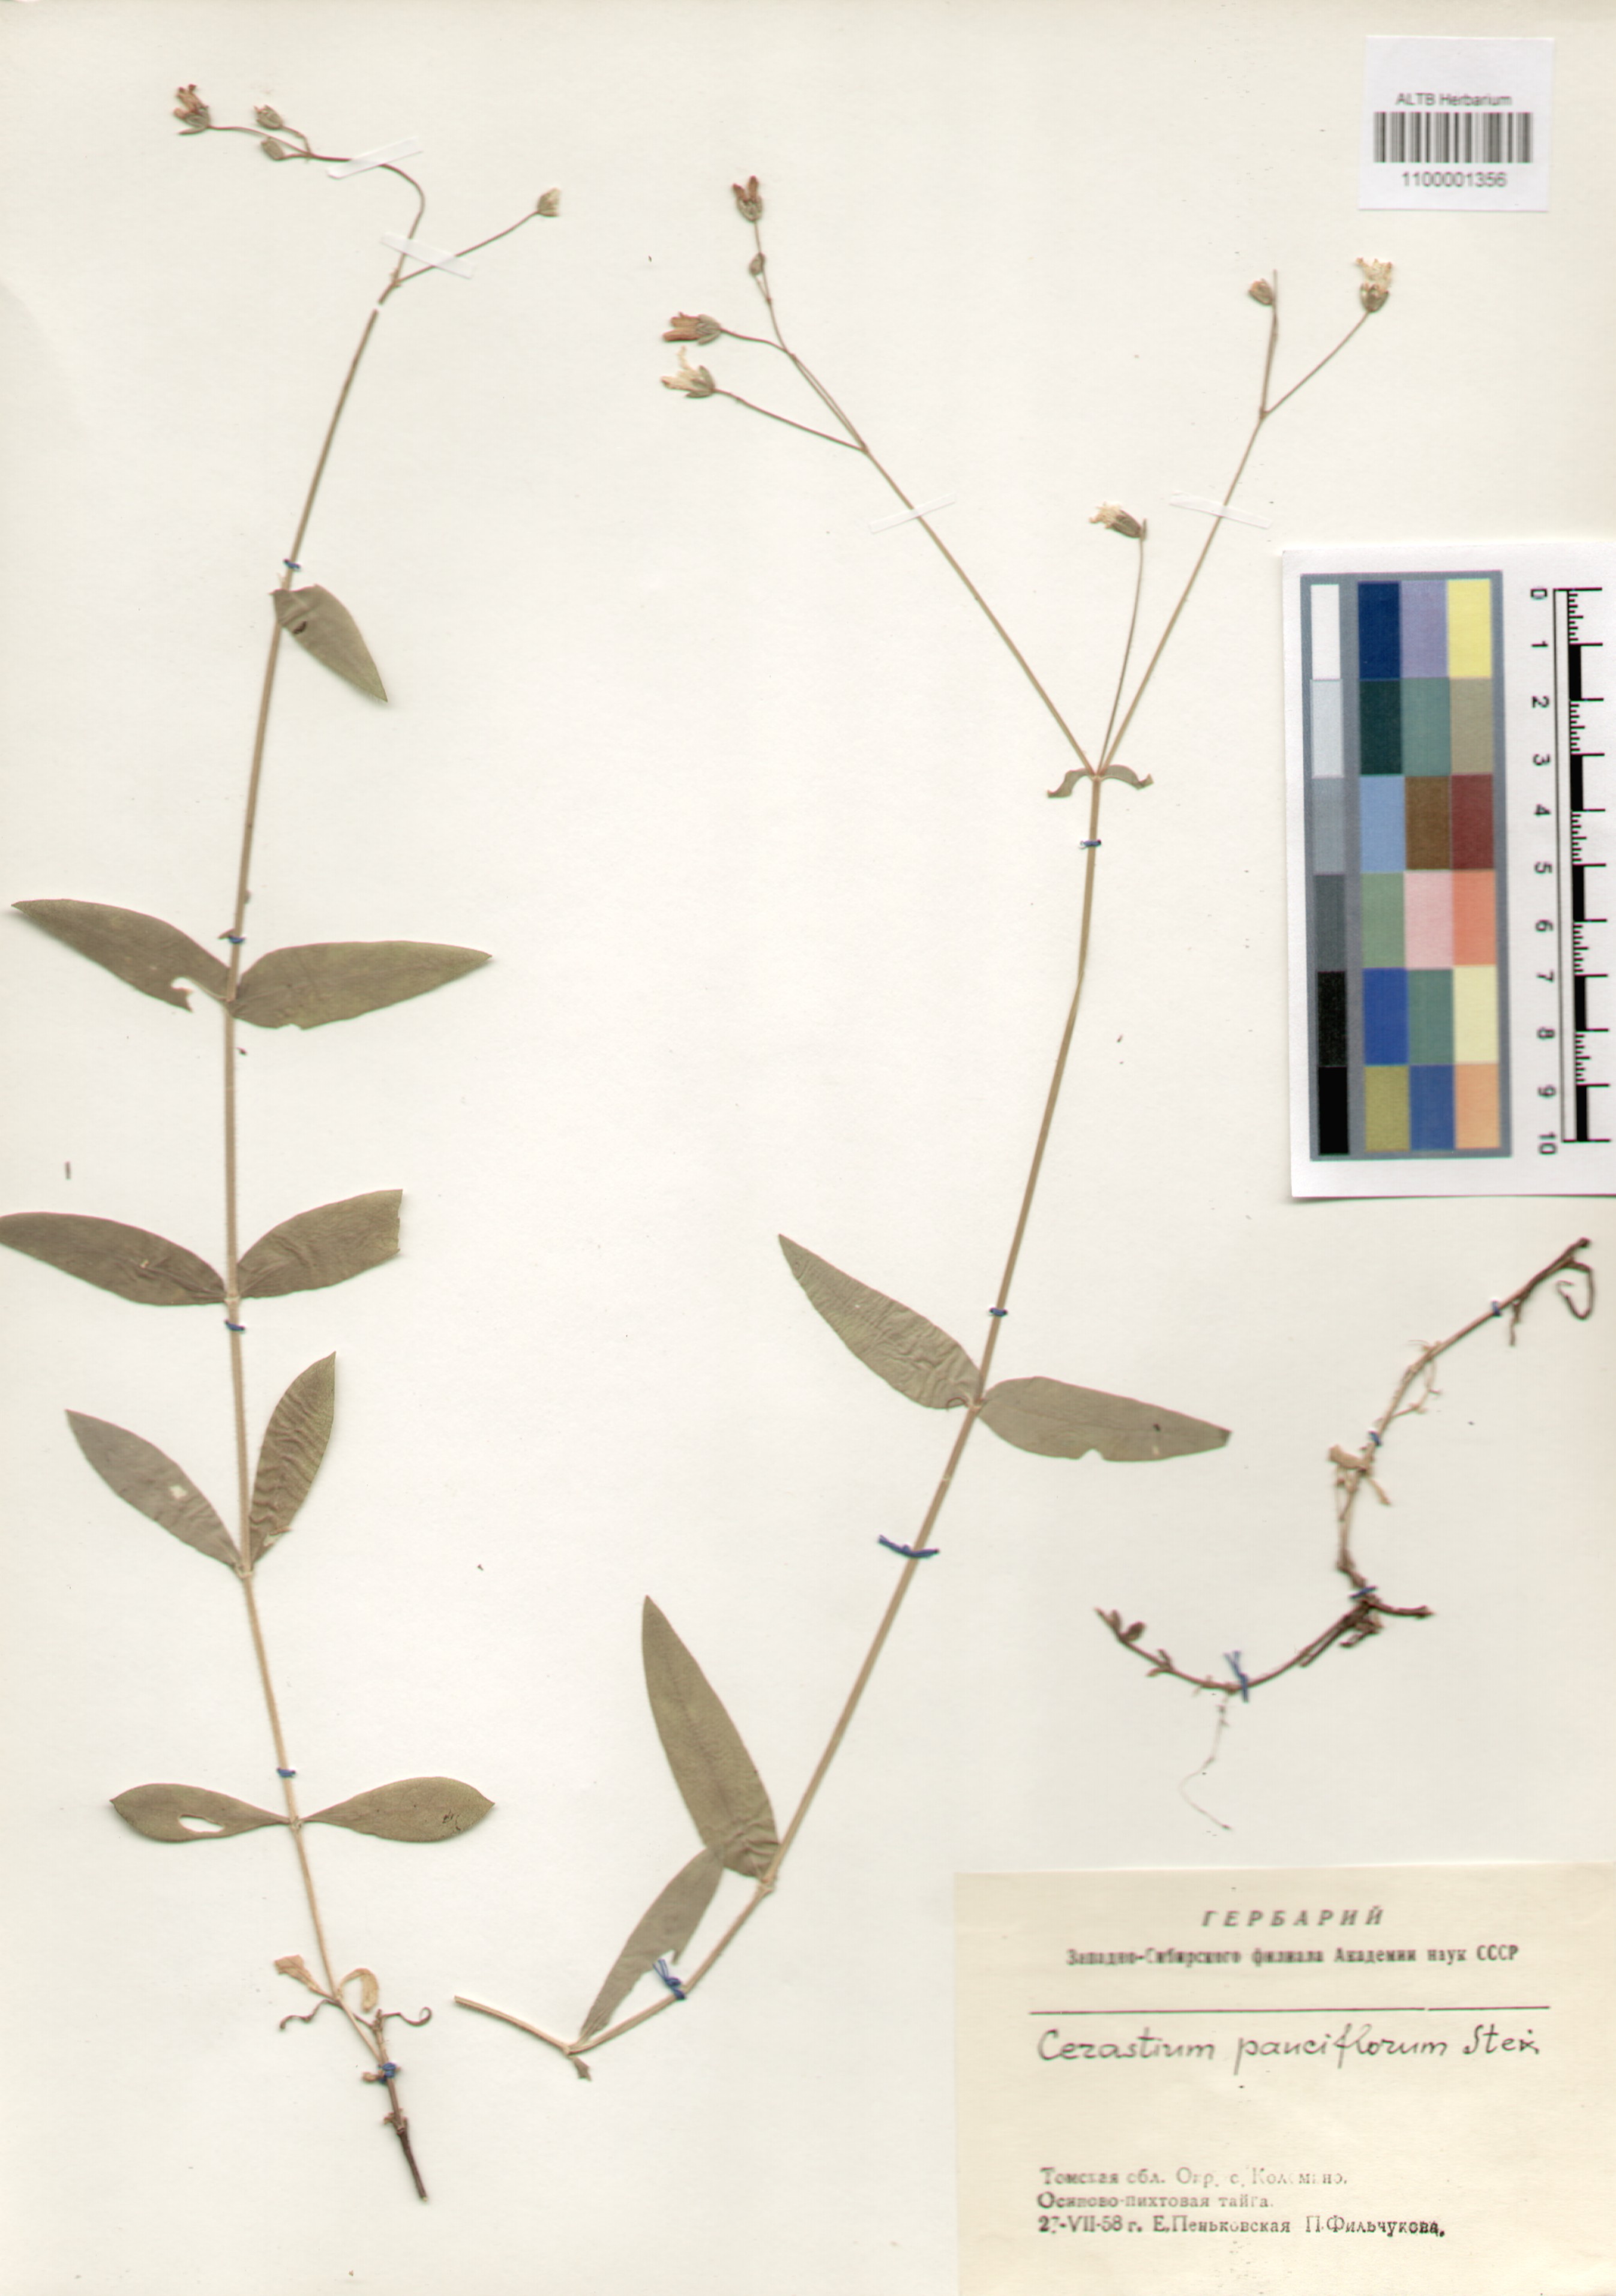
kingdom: Plantae
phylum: Tracheophyta
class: Magnoliopsida
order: Caryophyllales
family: Caryophyllaceae
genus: Cerastium
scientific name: Cerastium pauciflorum
